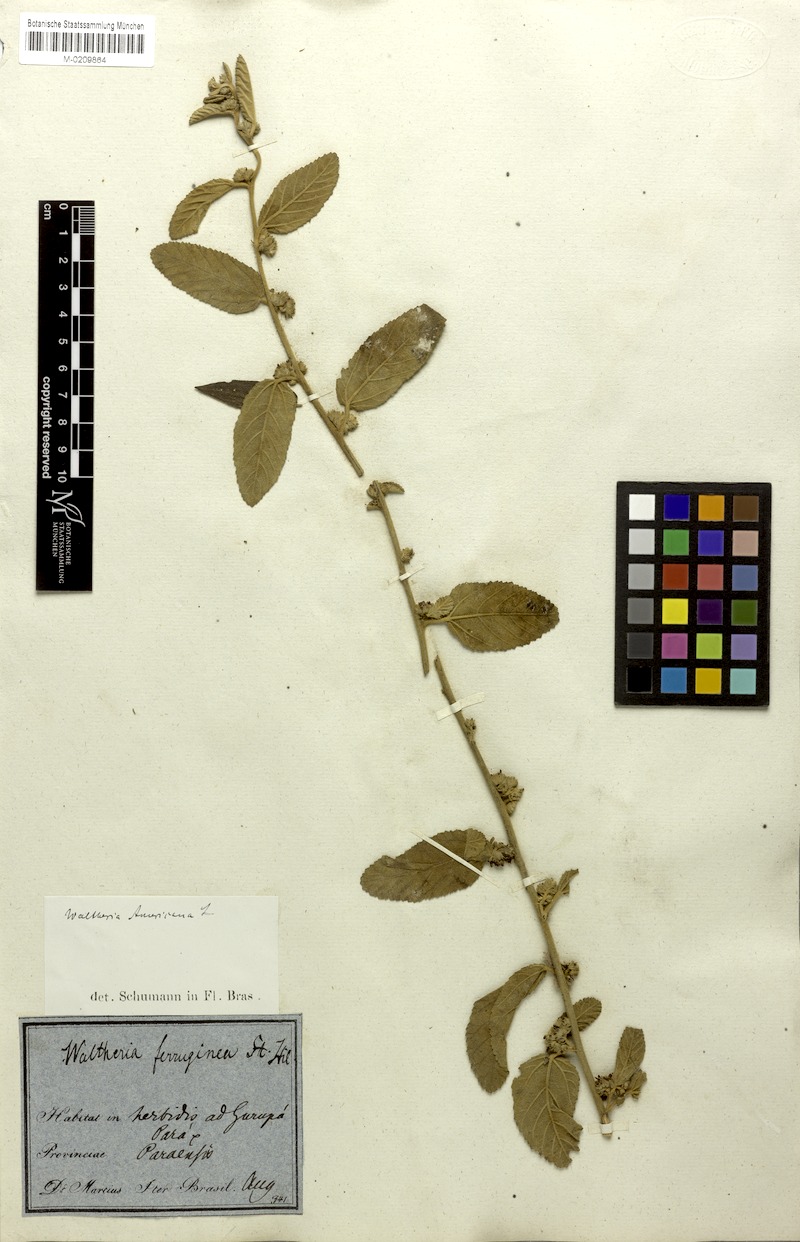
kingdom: Plantae
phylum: Tracheophyta
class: Magnoliopsida
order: Malvales
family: Malvaceae
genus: Waltheria
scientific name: Waltheria indica
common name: Leather-coat
